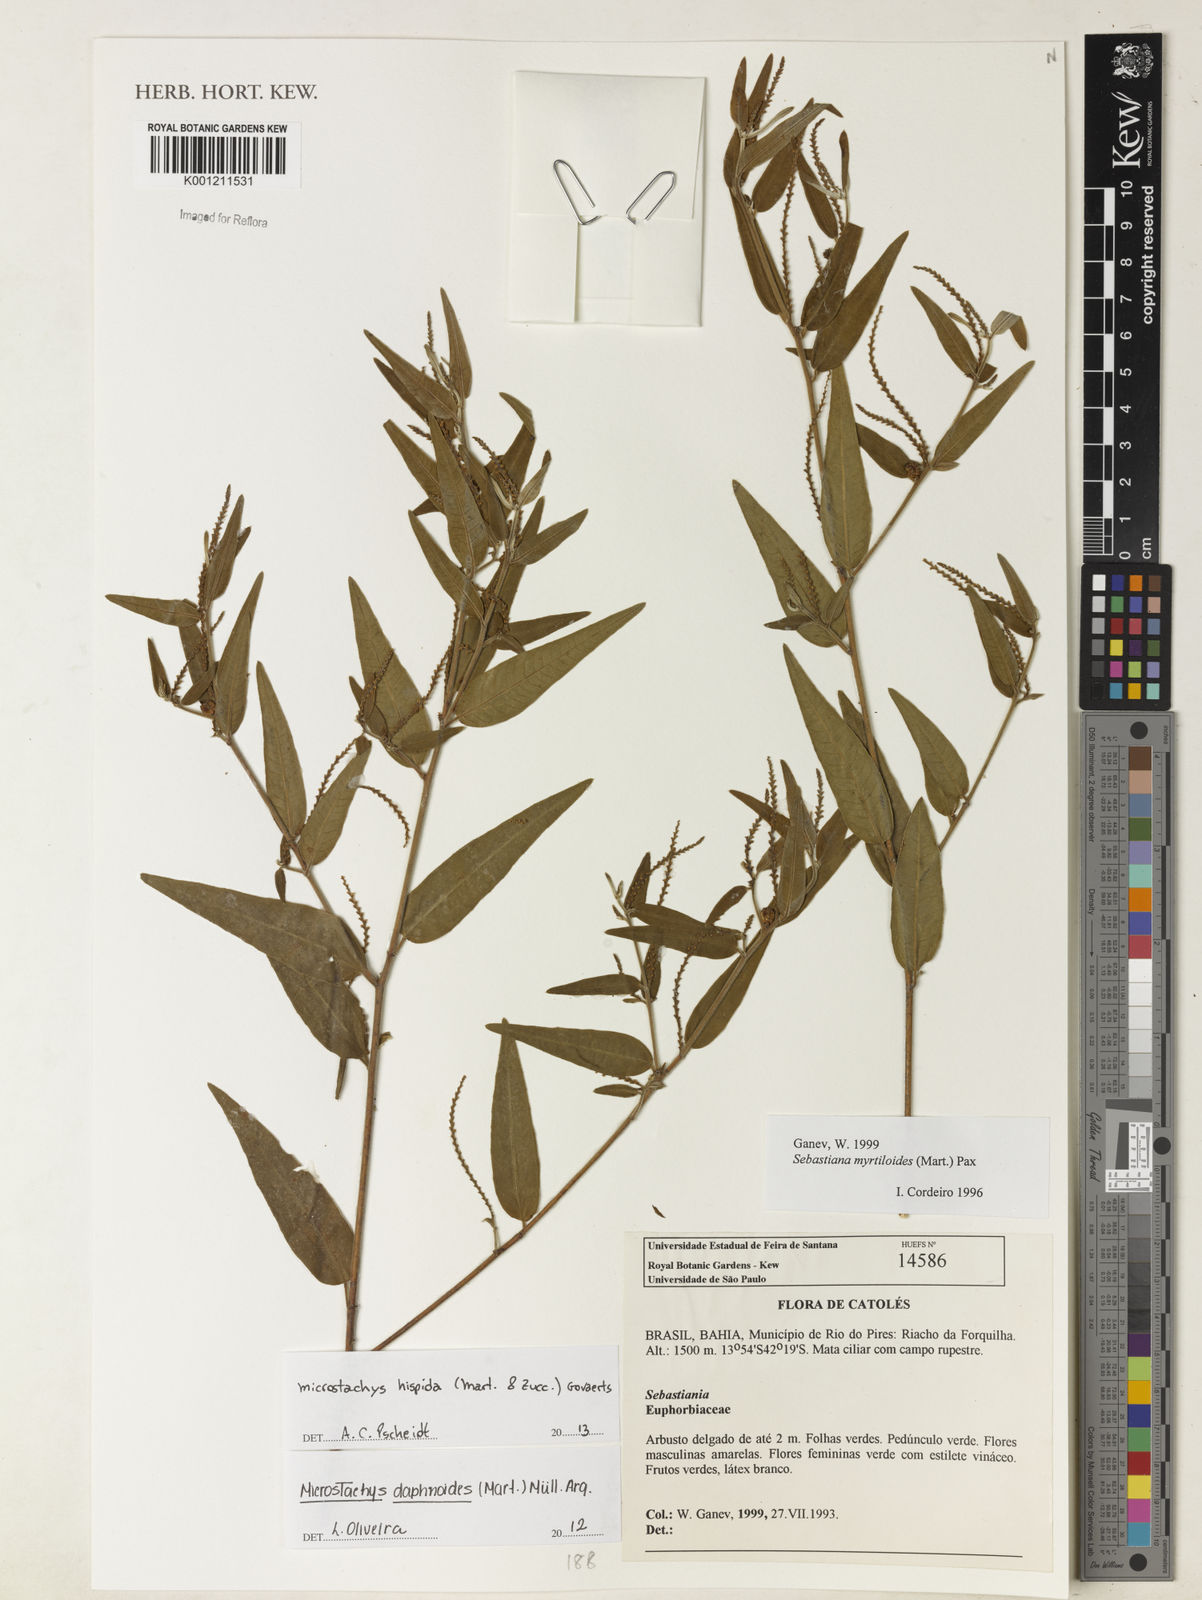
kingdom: Plantae
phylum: Tracheophyta
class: Magnoliopsida
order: Malpighiales
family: Euphorbiaceae
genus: Microstachys
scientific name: Microstachys hispida
